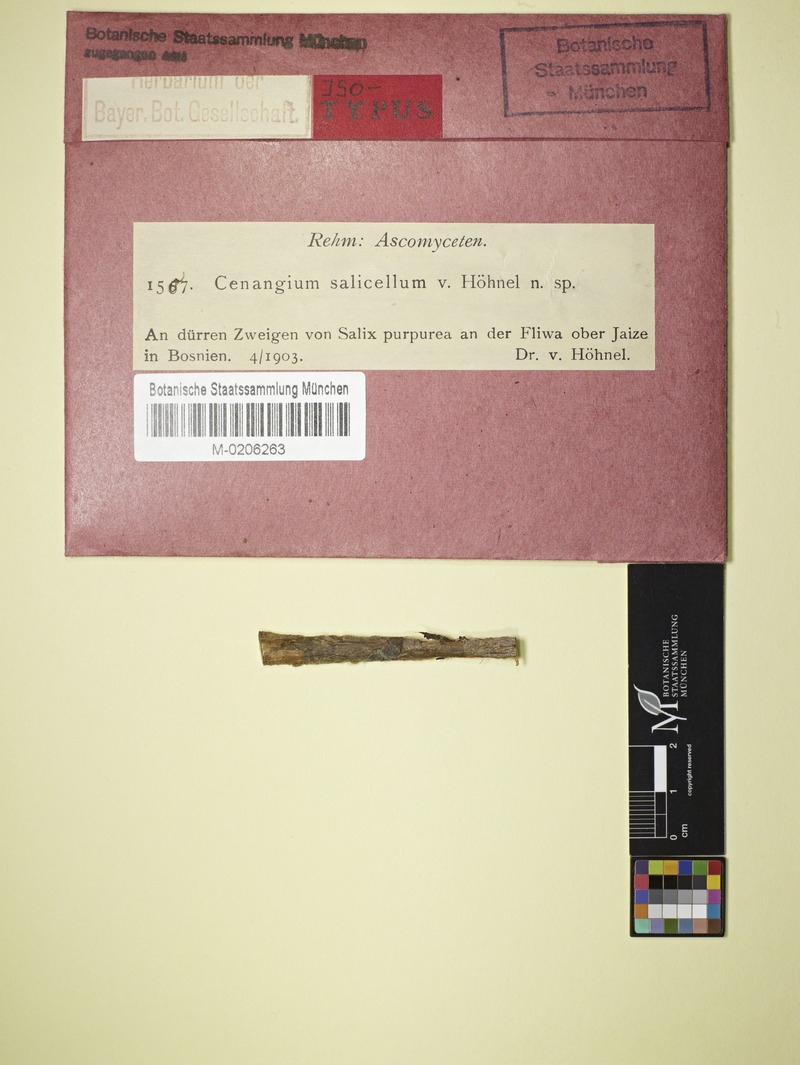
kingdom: Fungi
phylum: Ascomycota
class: Leotiomycetes
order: Helotiales
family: Sclerotiniaceae
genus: Sclerencoelia
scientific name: Sclerencoelia fascicularis
